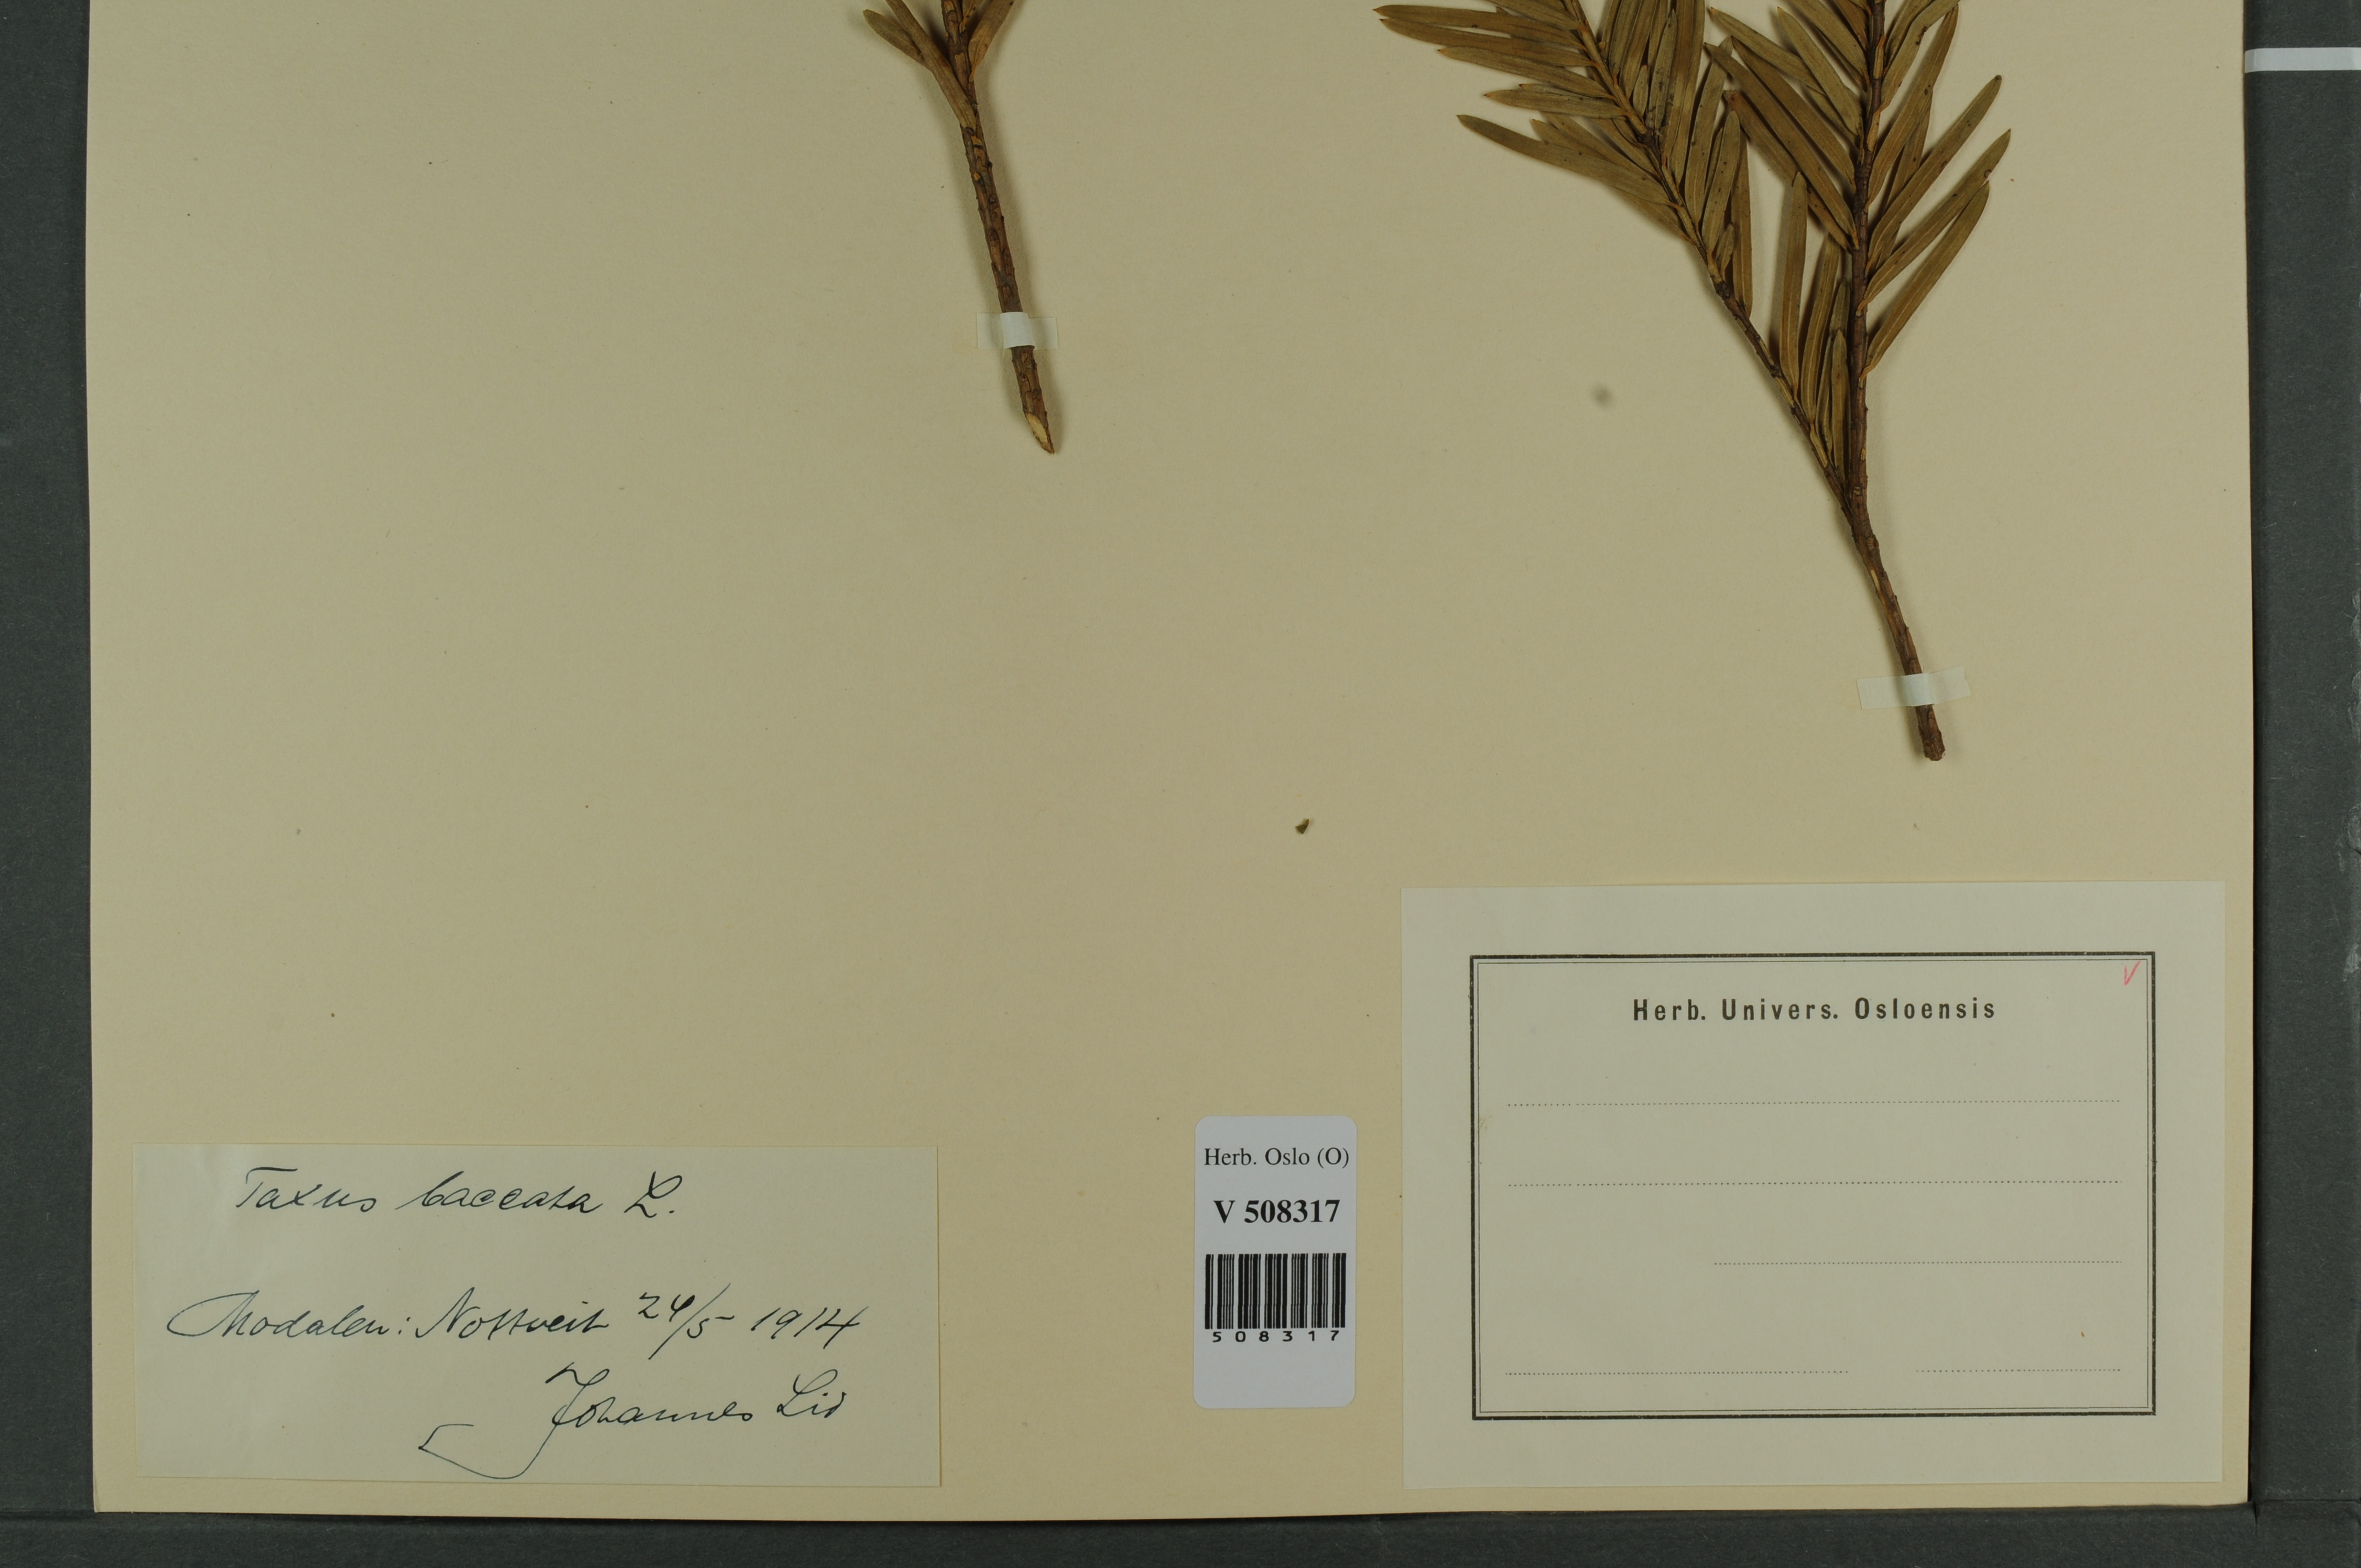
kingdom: Plantae
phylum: Tracheophyta
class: Pinopsida
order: Pinales
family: Taxaceae
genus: Taxus
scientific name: Taxus baccata
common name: Yew
